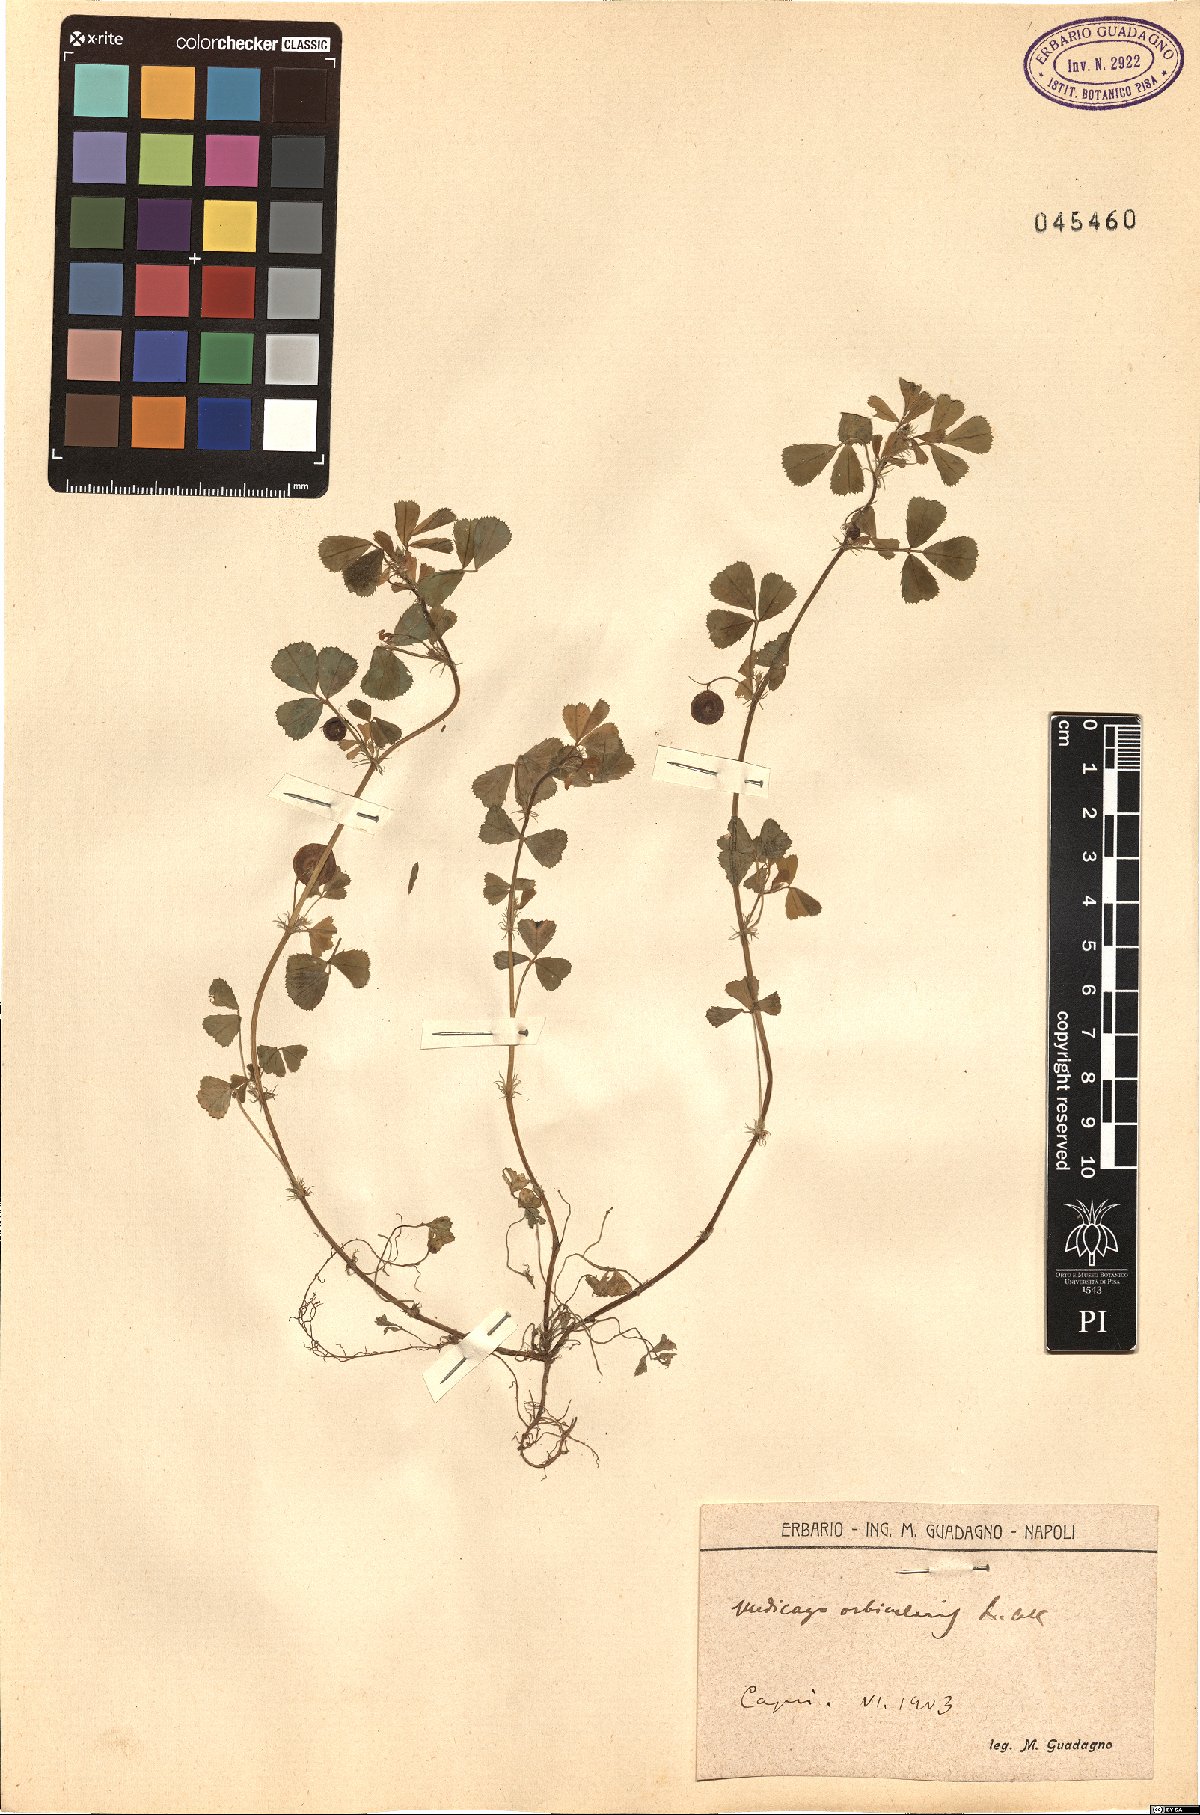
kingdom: Plantae
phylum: Tracheophyta
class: Magnoliopsida
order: Fabales
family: Fabaceae
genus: Medicago
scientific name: Medicago orbicularis
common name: Button medick
